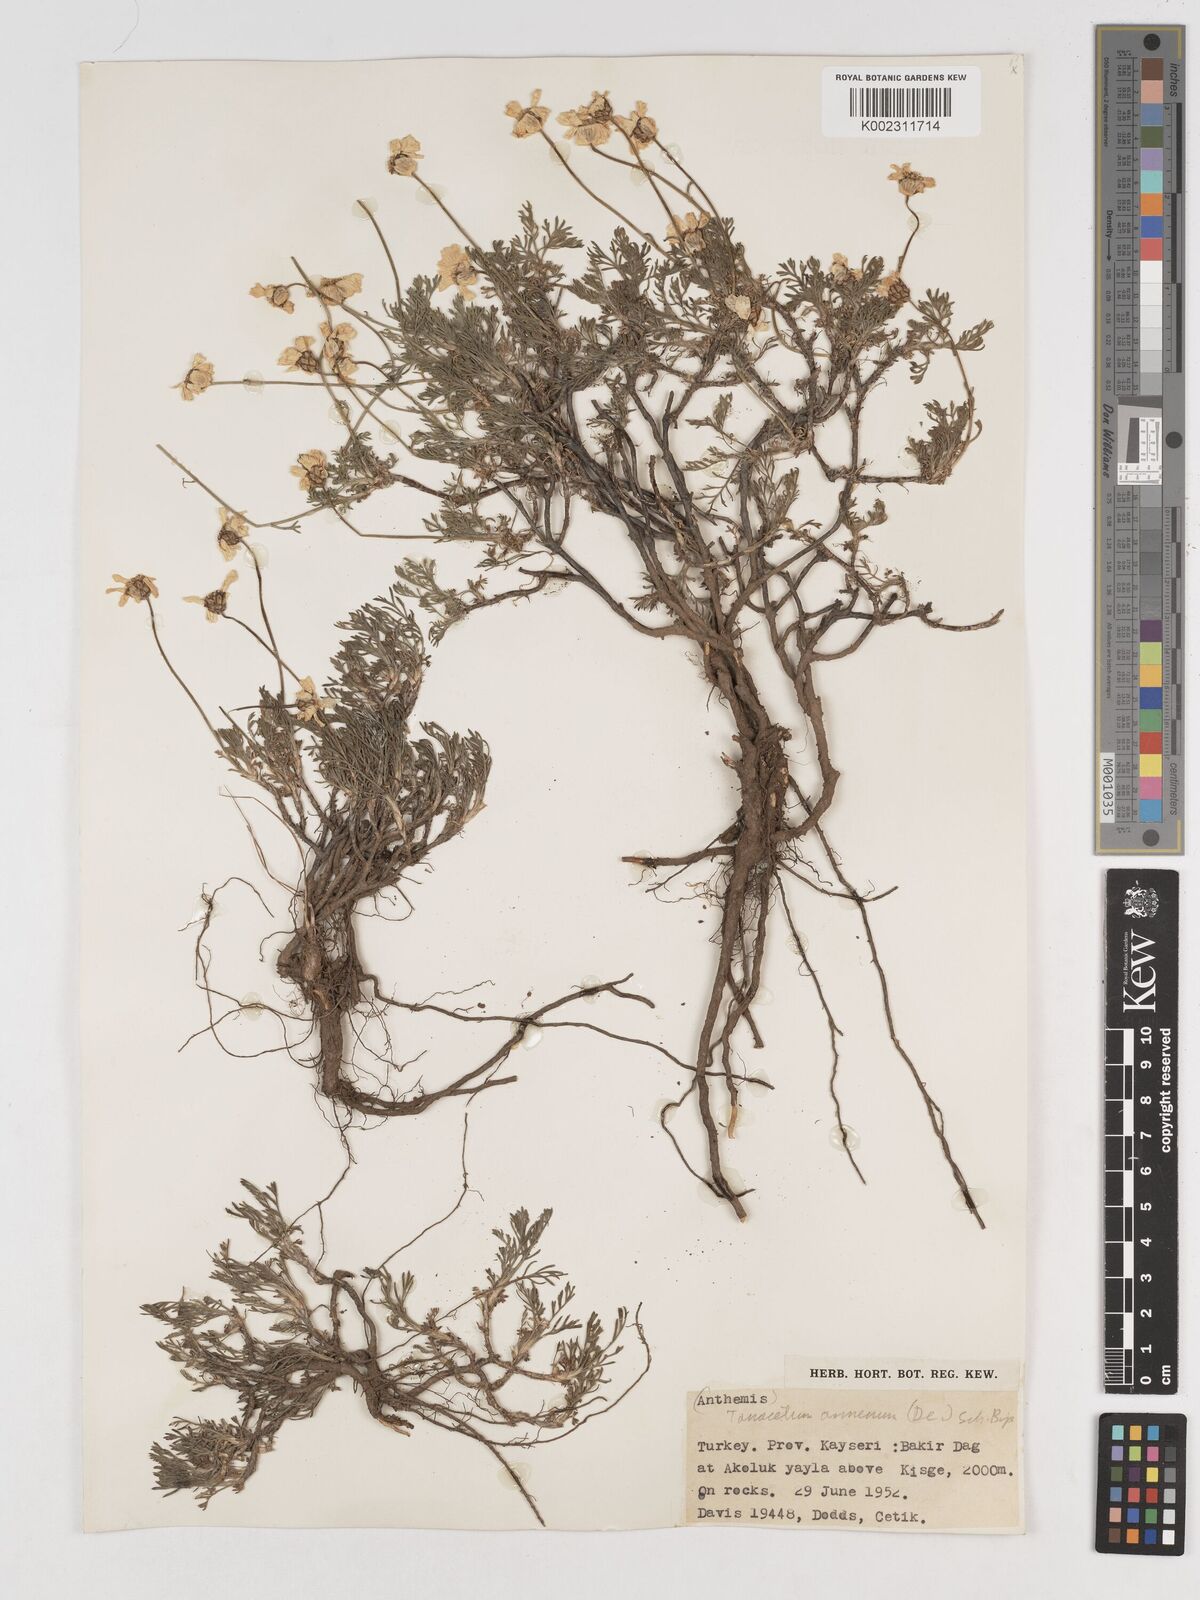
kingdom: Plantae
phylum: Tracheophyta
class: Magnoliopsida
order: Asterales
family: Asteraceae
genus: Tanacetum
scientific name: Tanacetum armenum
